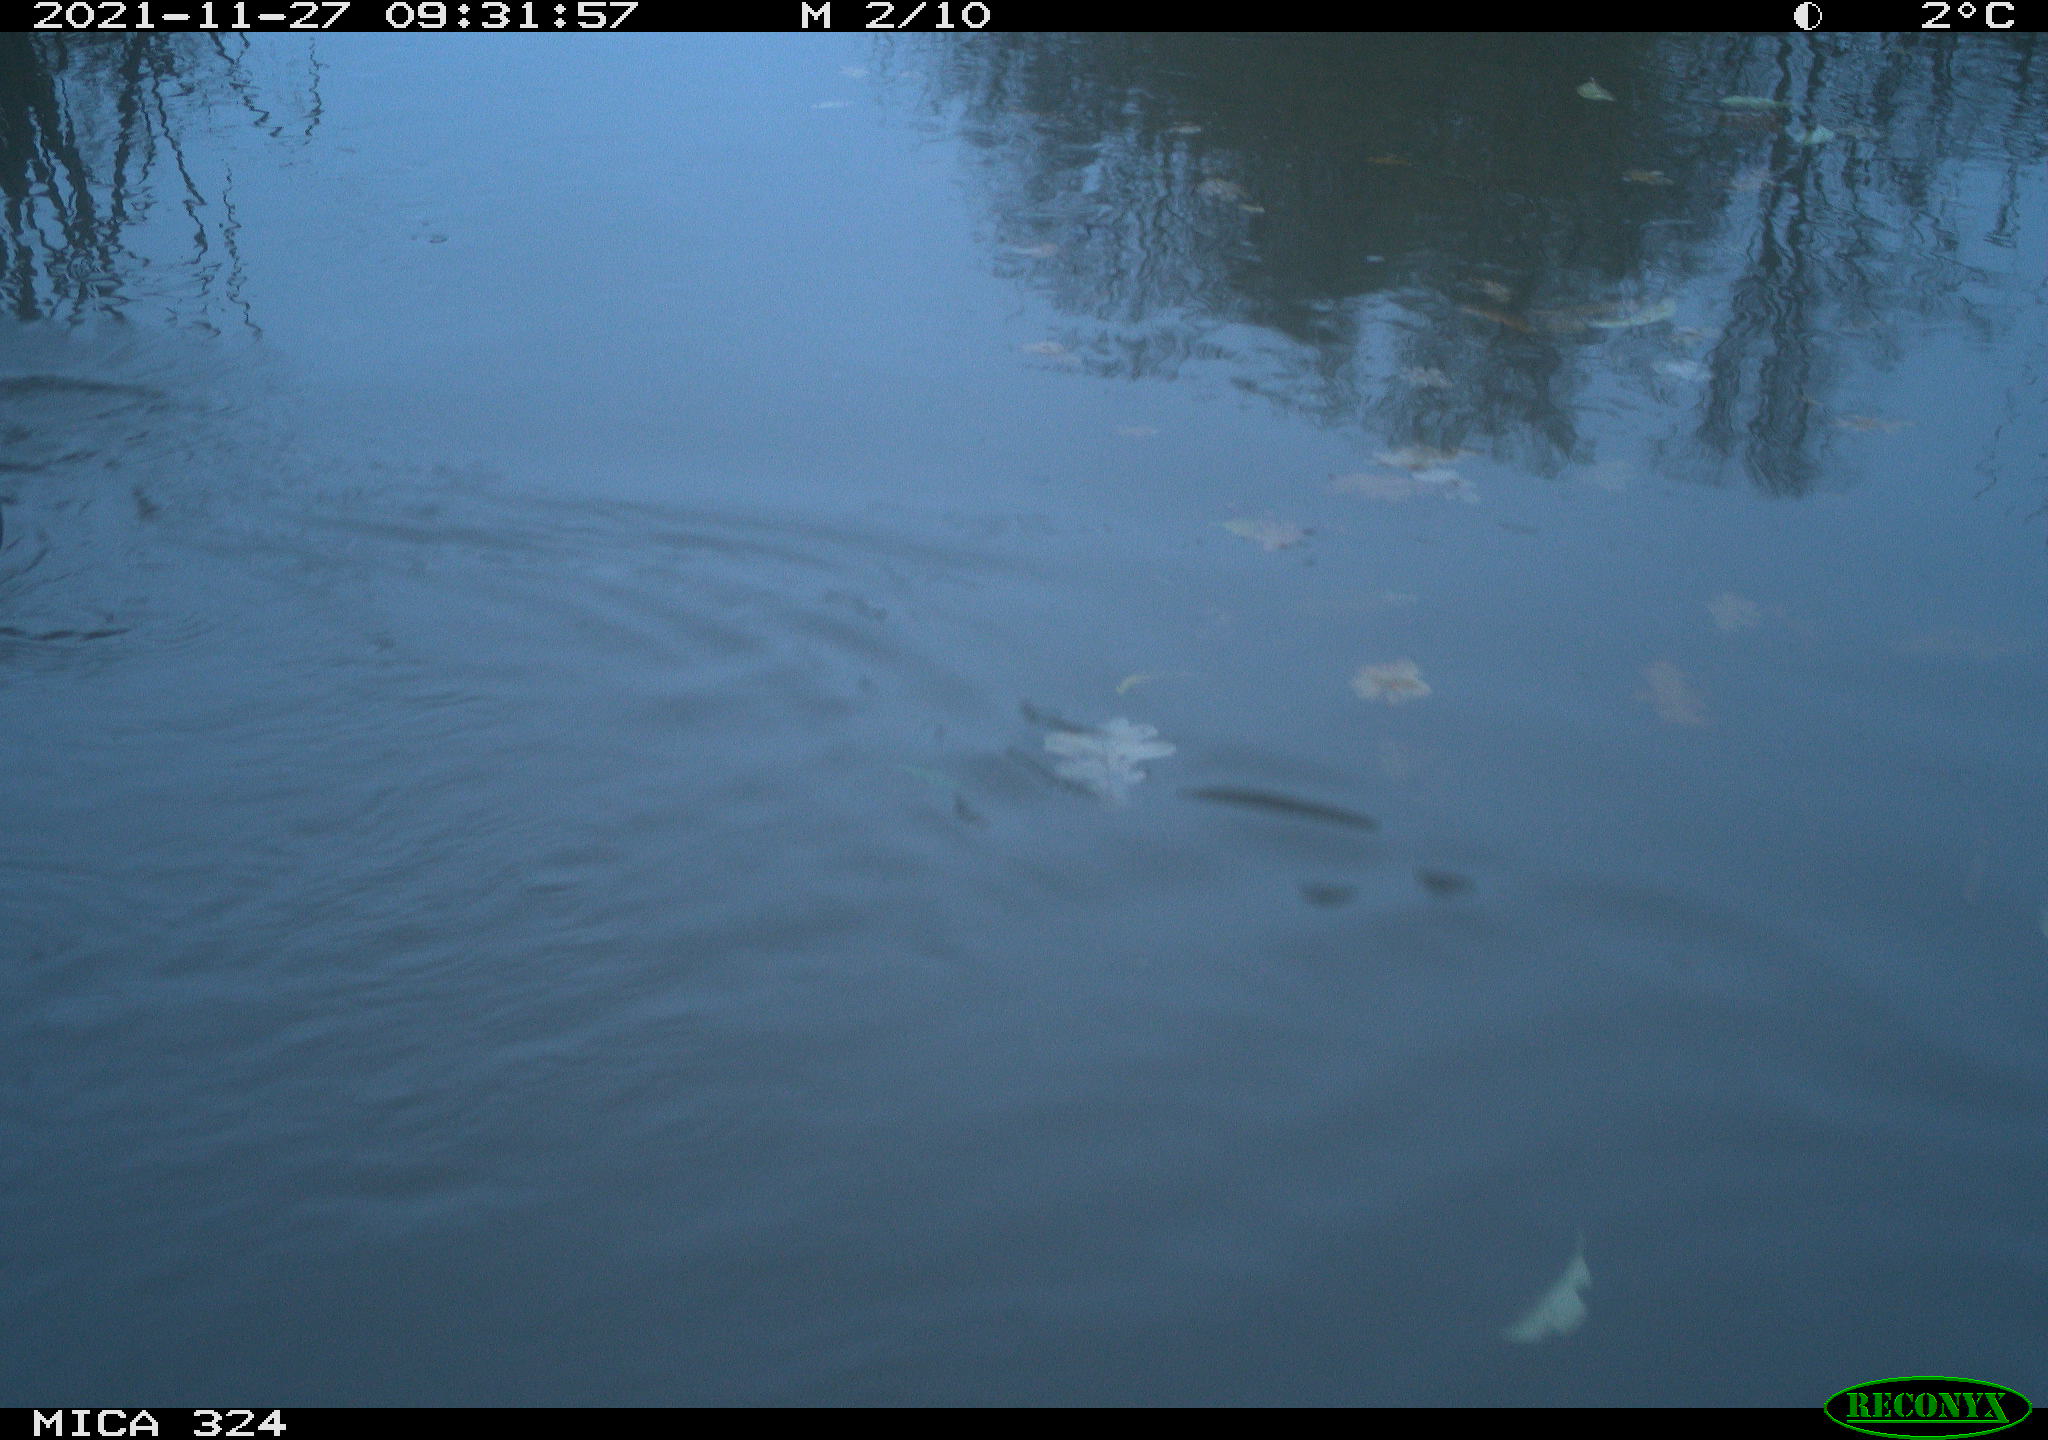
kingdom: Animalia
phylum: Chordata
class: Mammalia
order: Rodentia
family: Cricetidae
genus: Ondatra
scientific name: Ondatra zibethicus
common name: Muskrat
